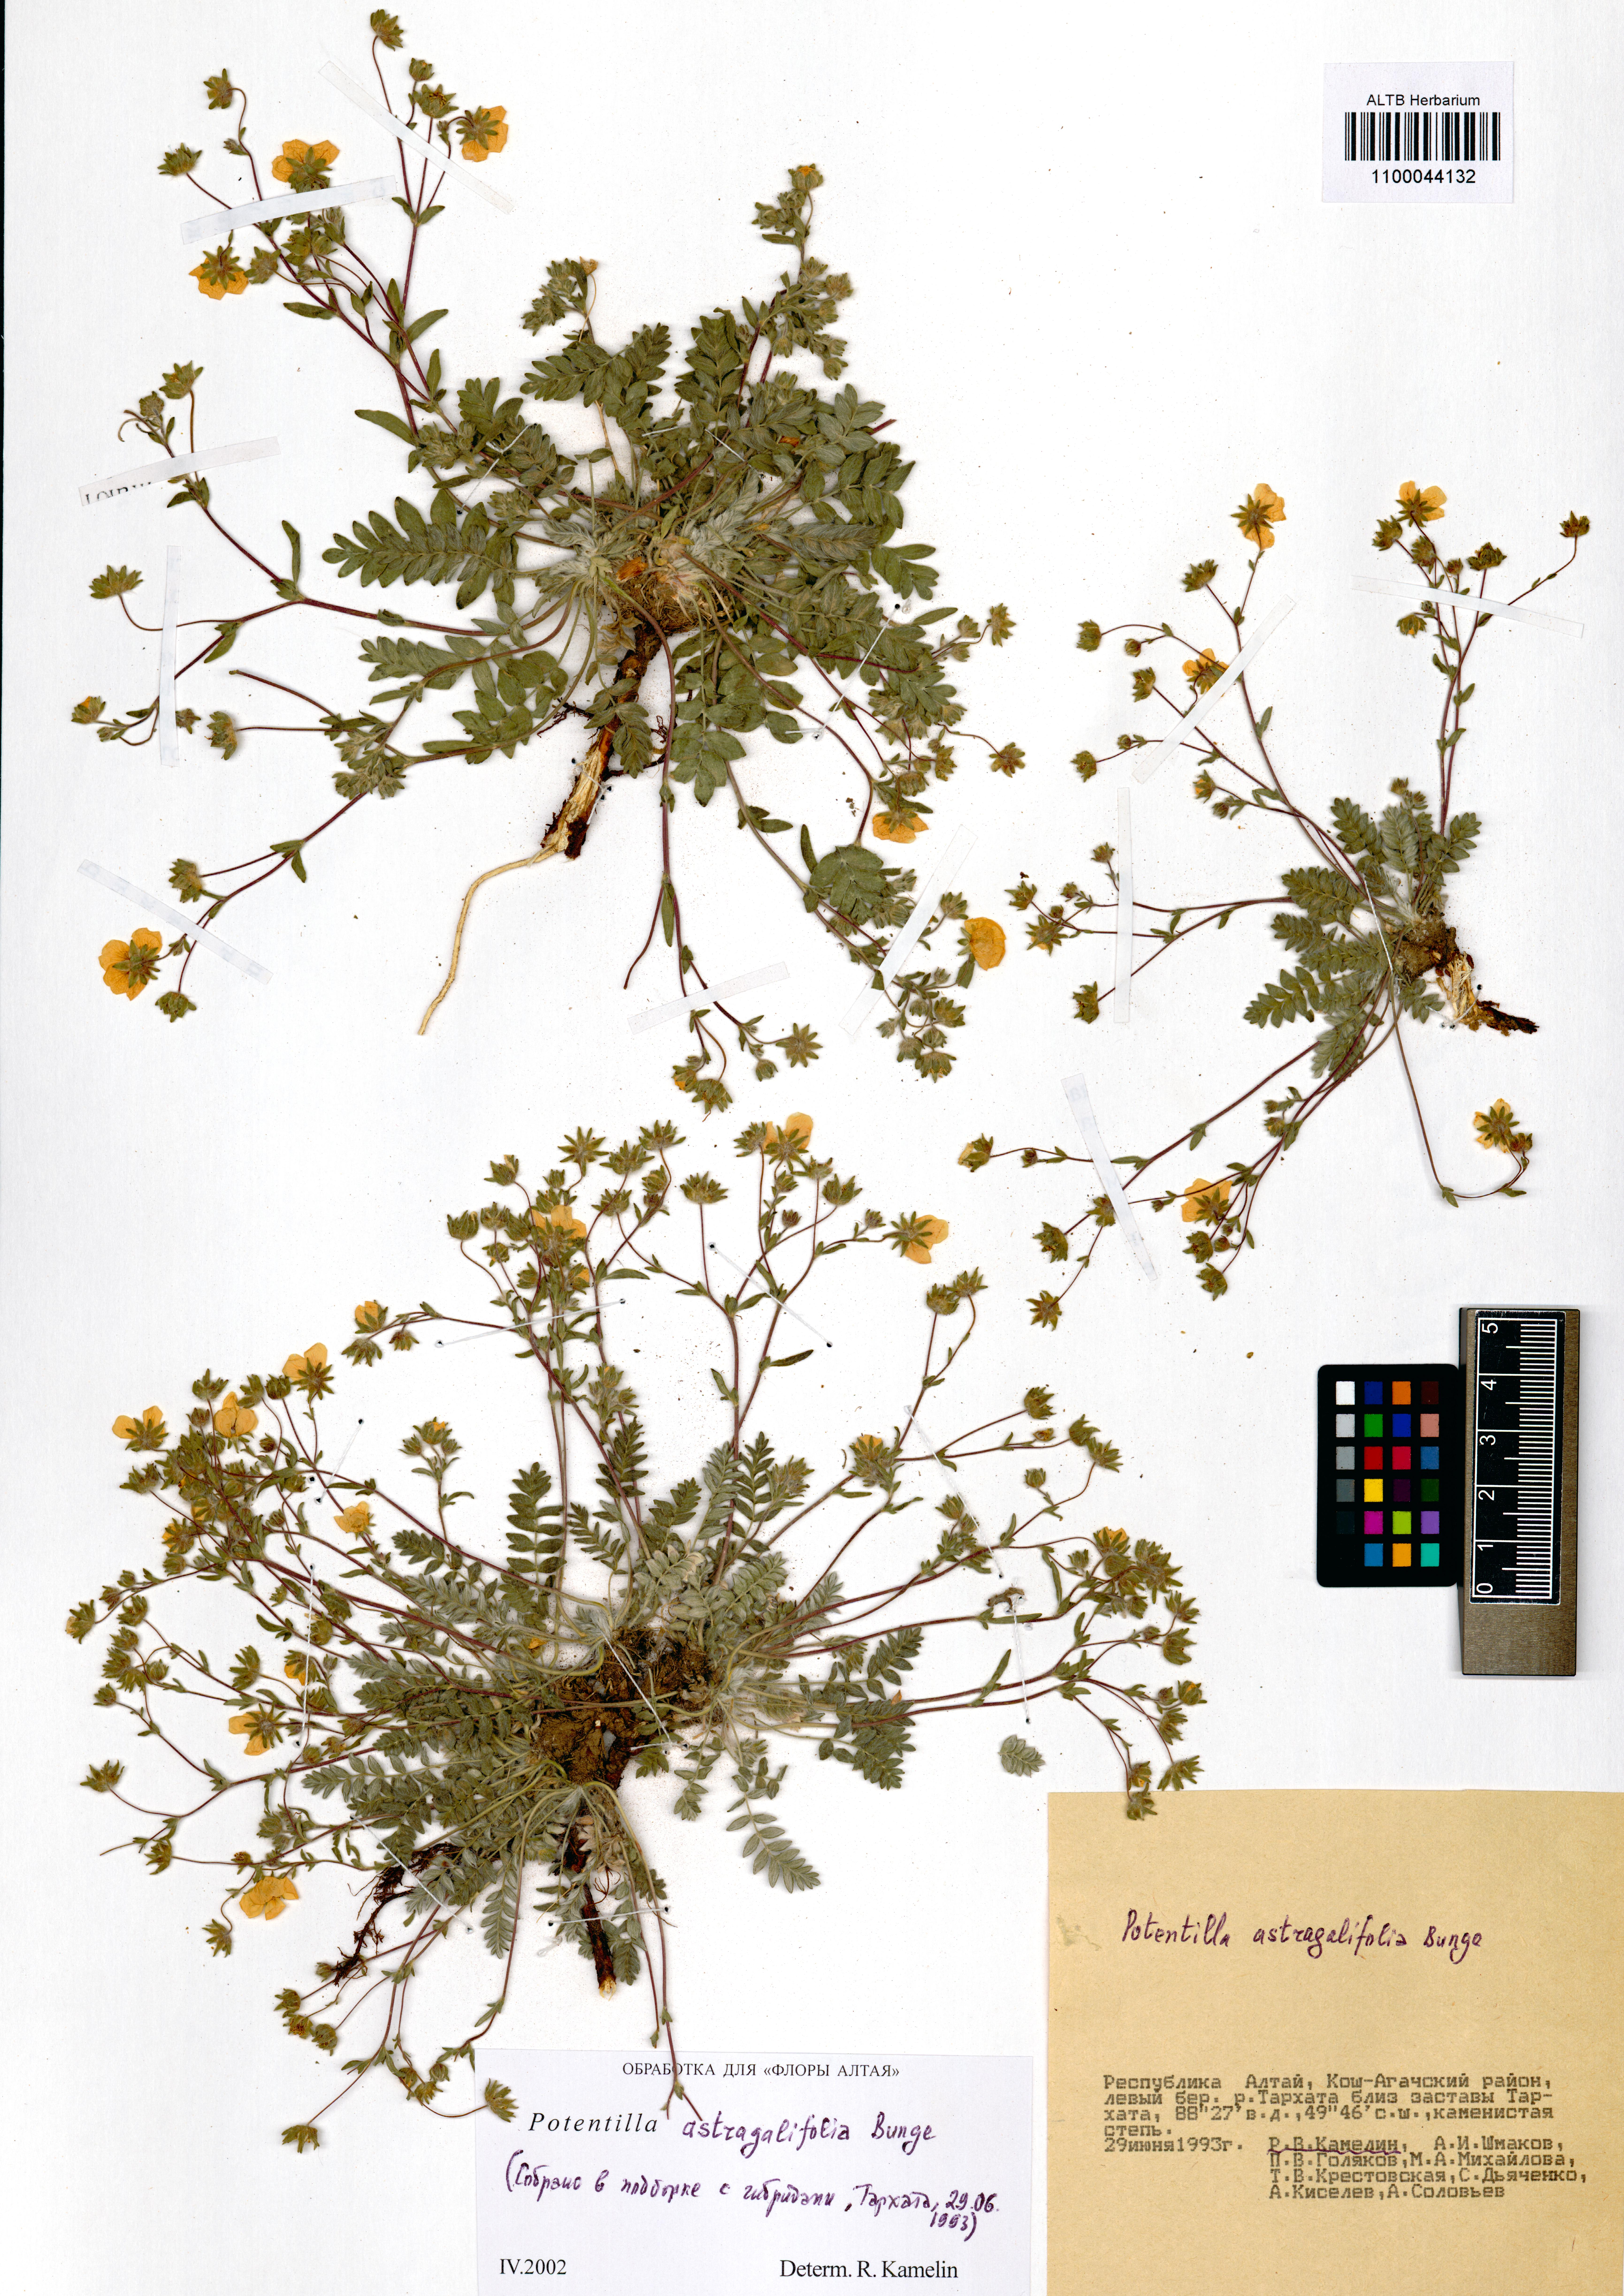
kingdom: Plantae
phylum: Tracheophyta
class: Magnoliopsida
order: Rosales
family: Rosaceae
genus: Potentilla
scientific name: Potentilla astragalifolia
